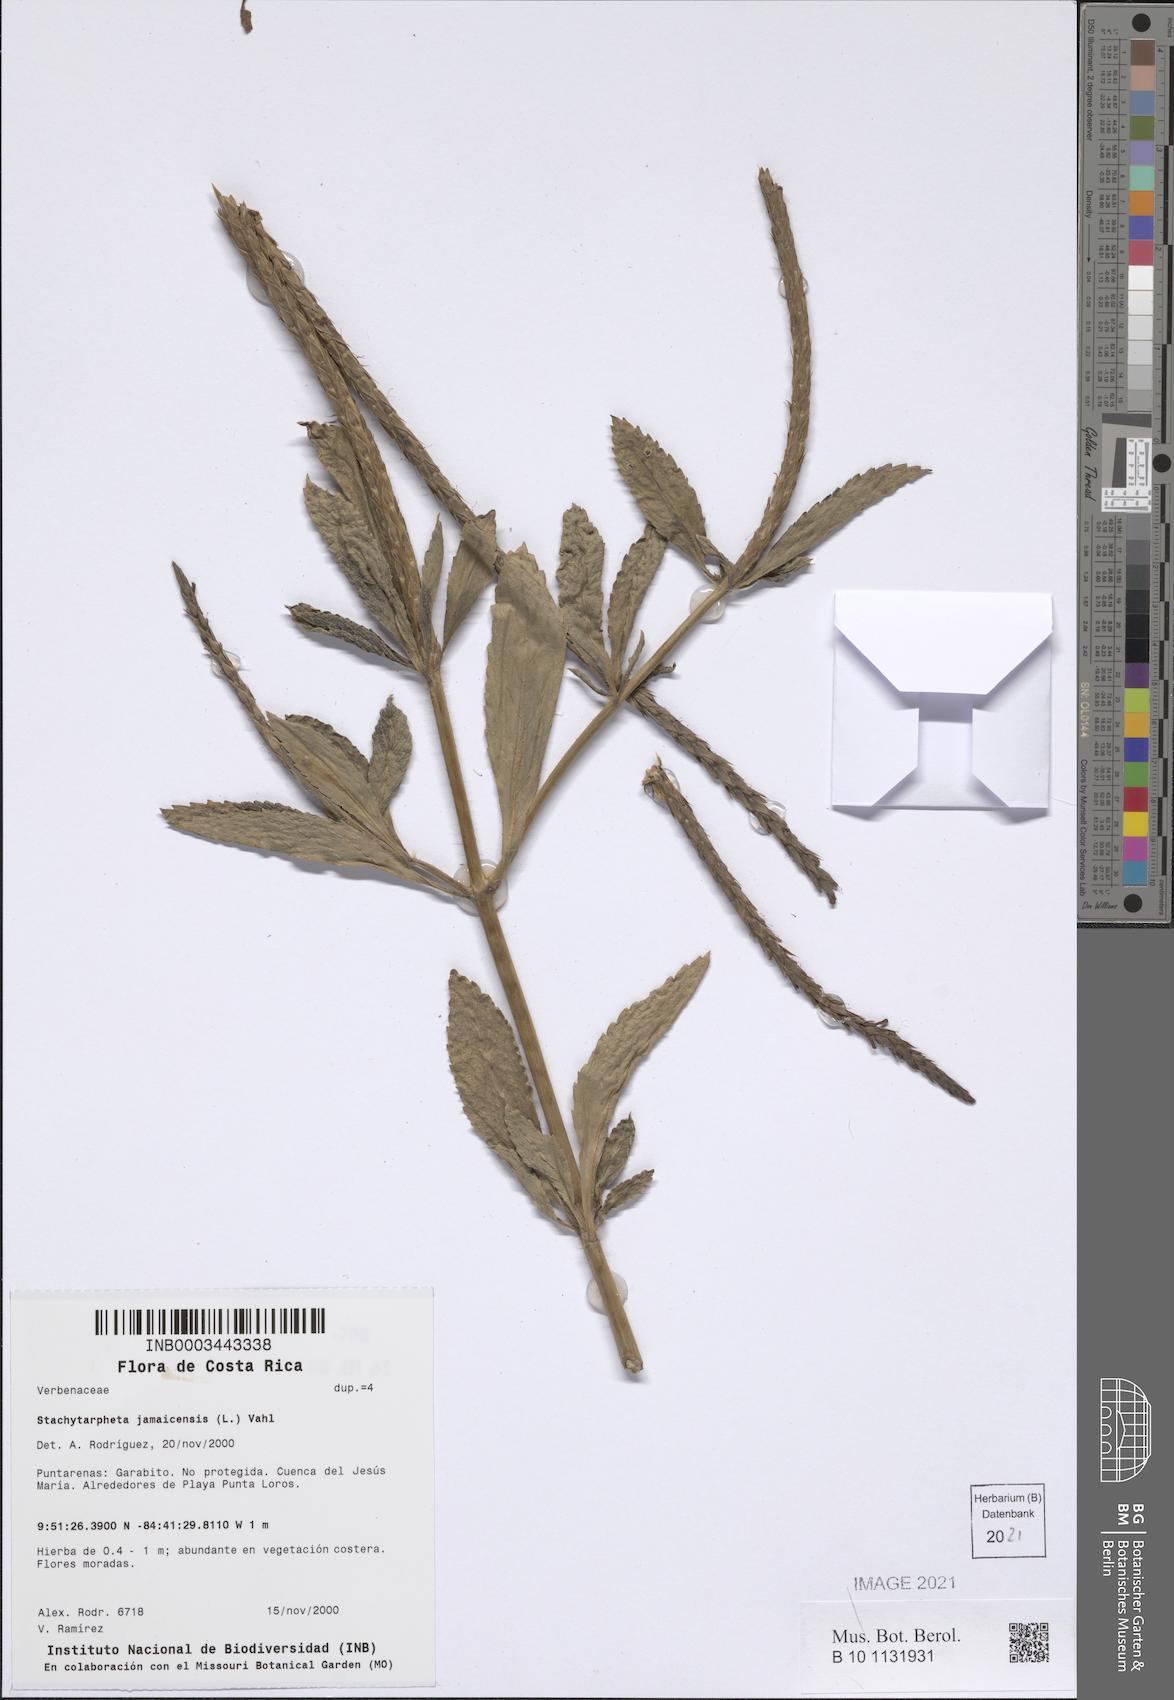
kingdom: Plantae
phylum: Tracheophyta
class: Magnoliopsida
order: Lamiales
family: Verbenaceae
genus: Stachytarpheta
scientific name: Stachytarpheta jamaicensis
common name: Light-blue snakeweed
